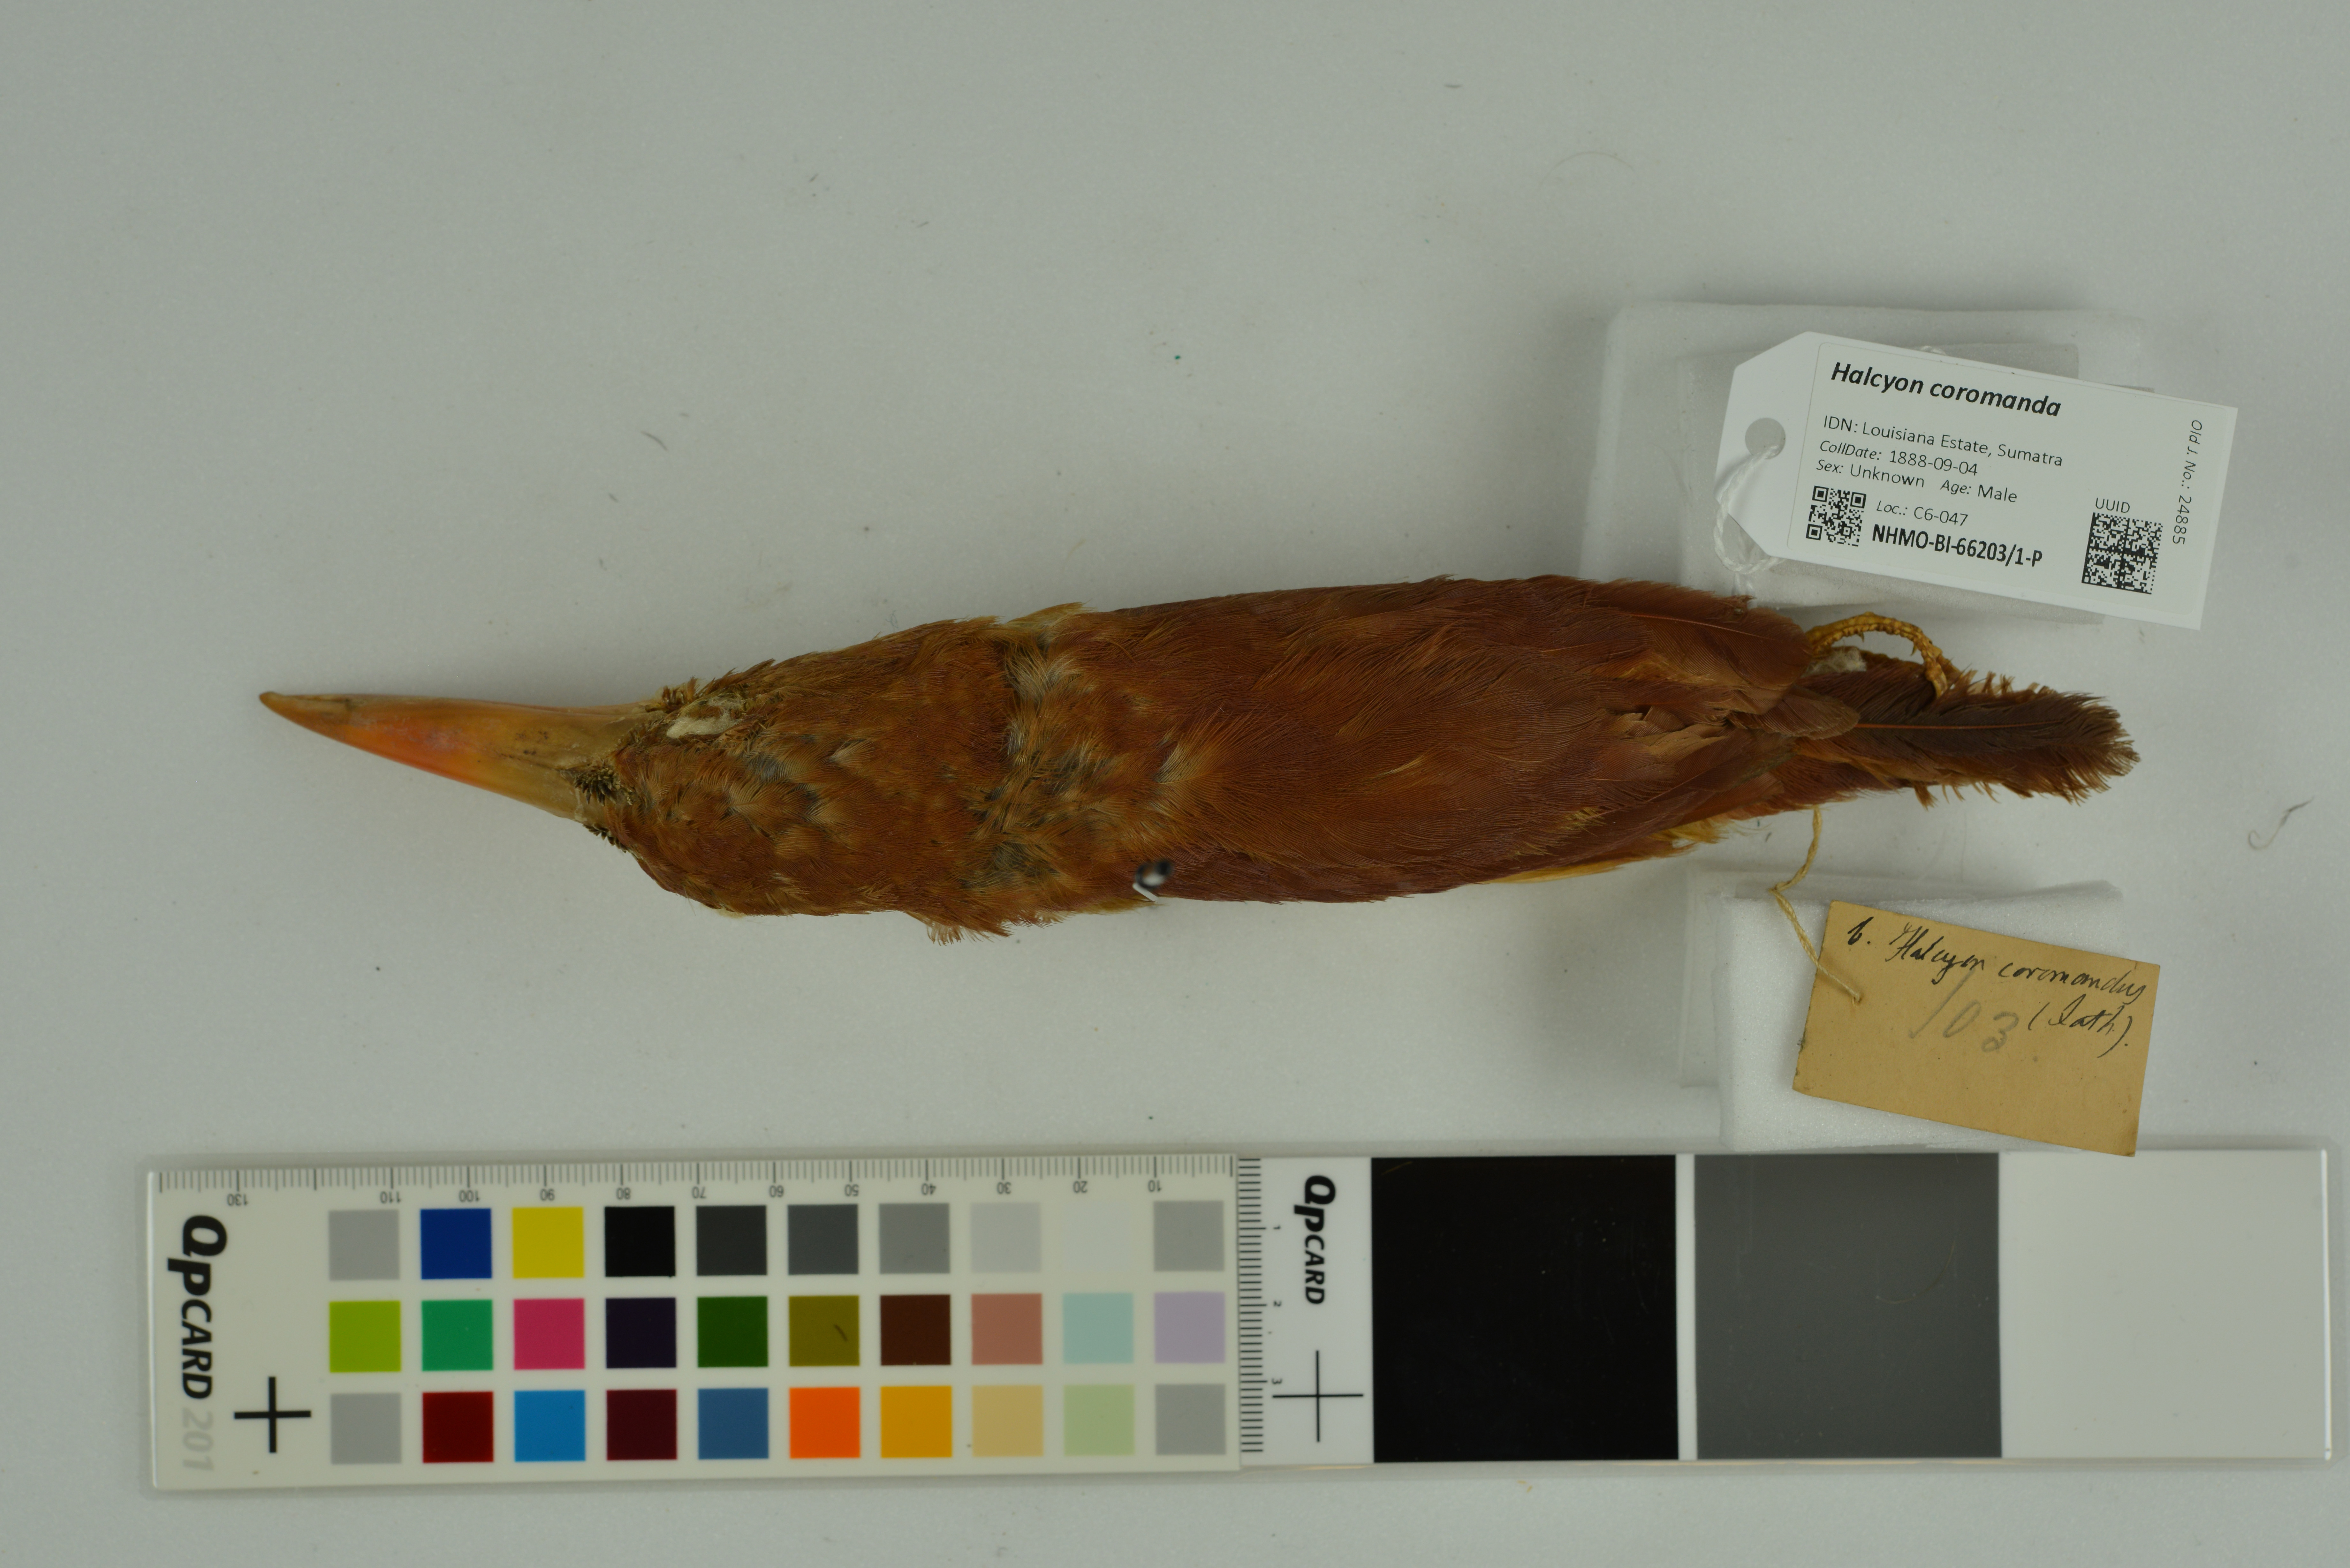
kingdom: Animalia
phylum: Chordata
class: Aves
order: Coraciiformes
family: Alcedinidae
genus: Halcyon
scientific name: Halcyon coromanda
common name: Ruddy kingfisher
